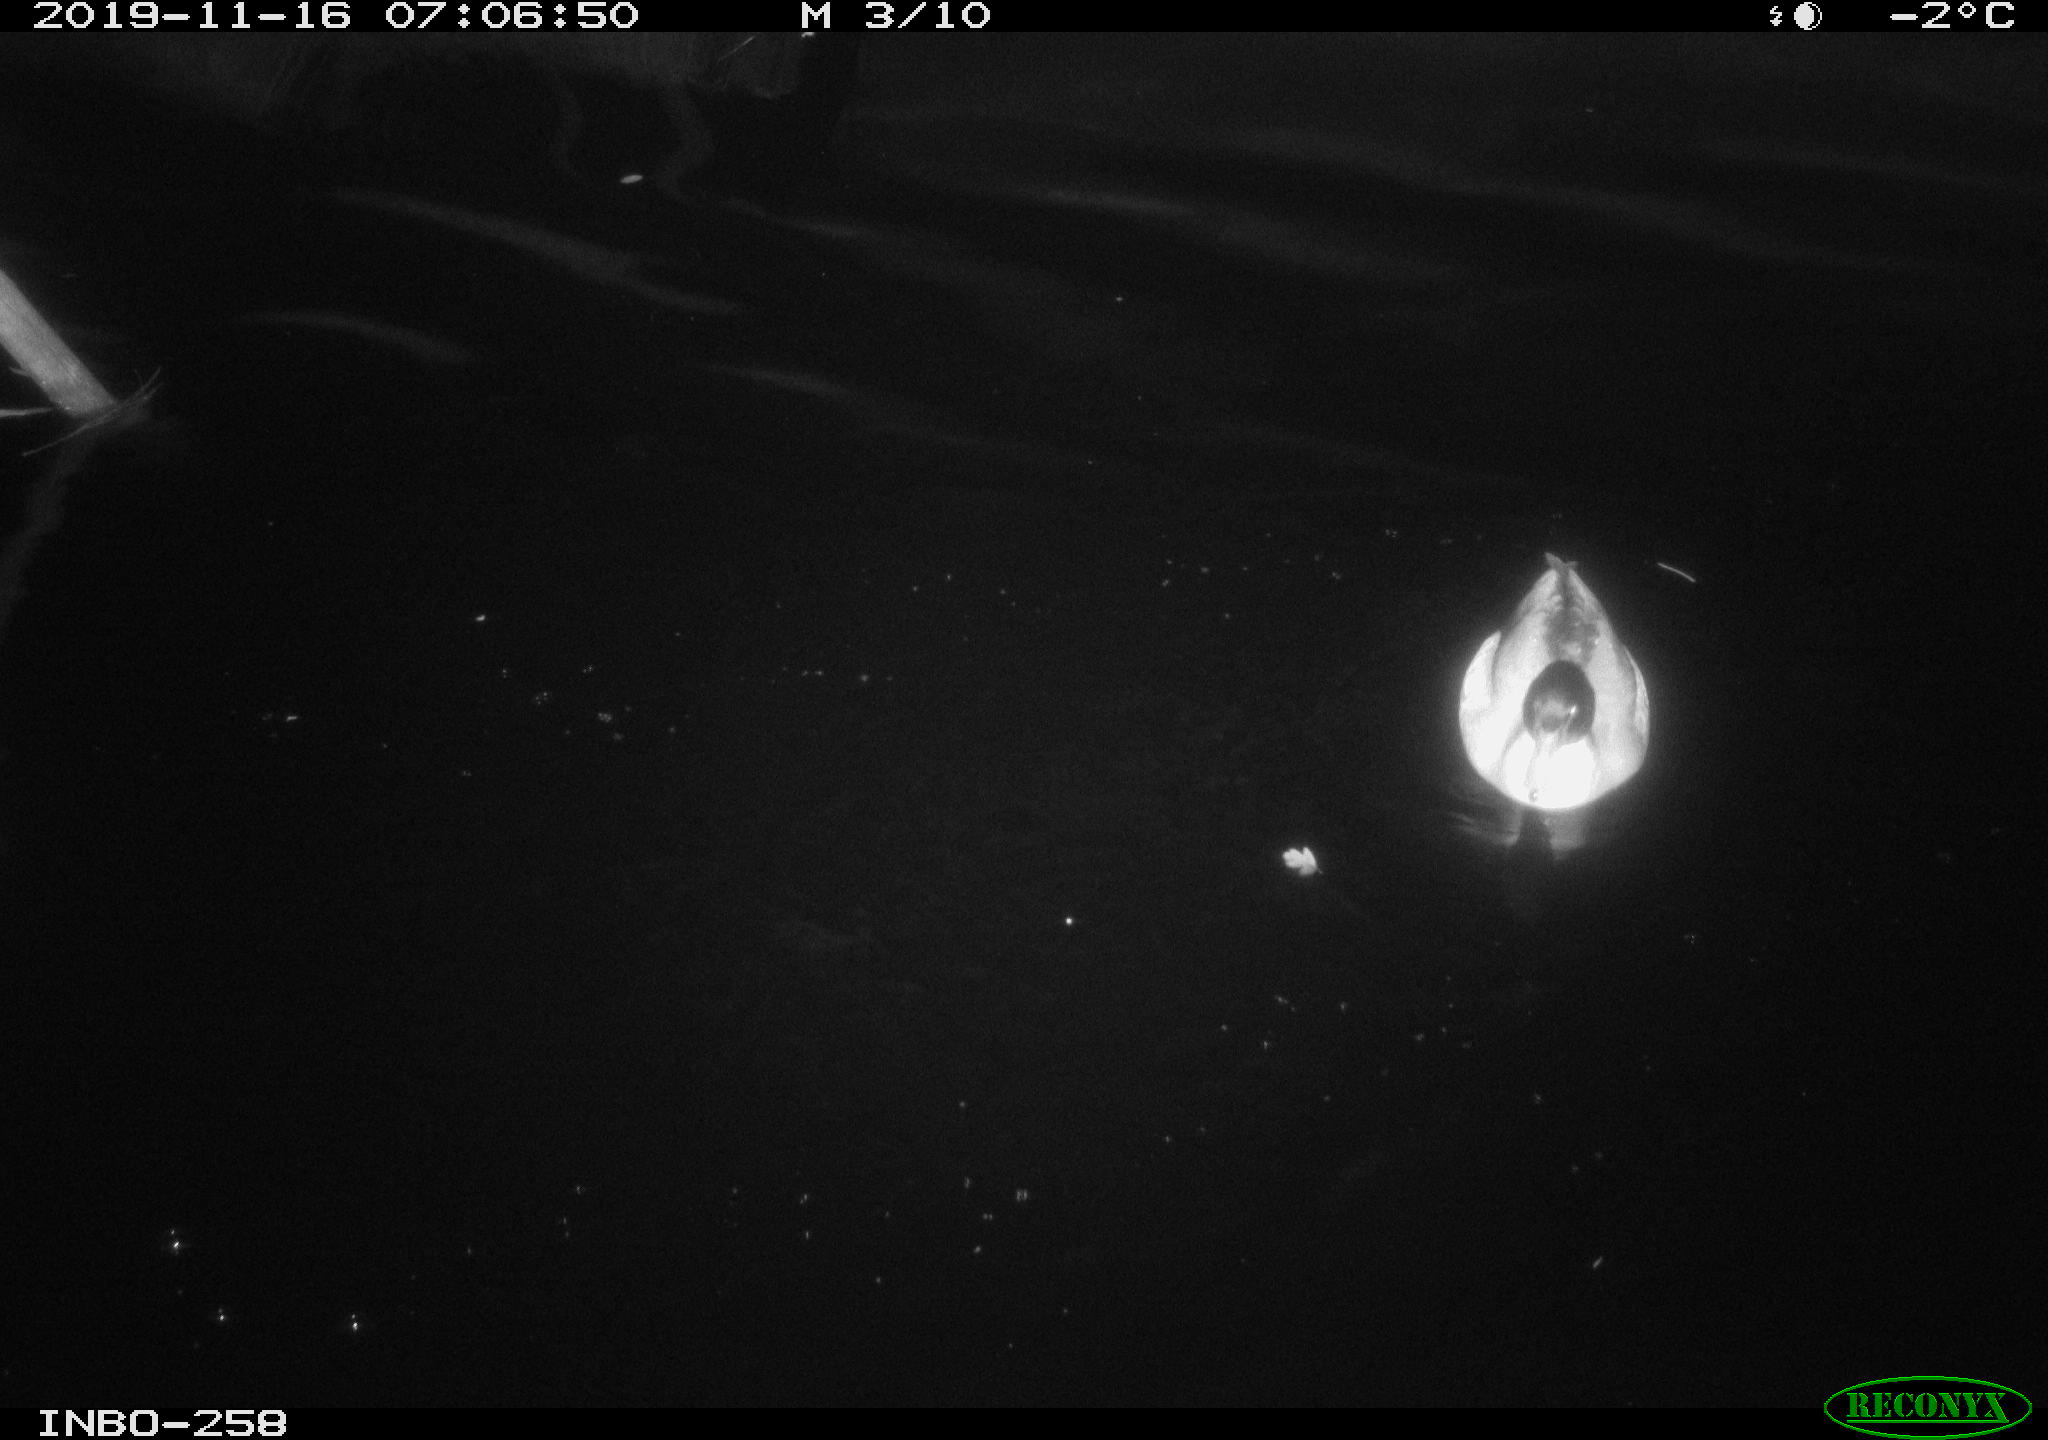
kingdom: Animalia
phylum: Chordata
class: Aves
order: Anseriformes
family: Anatidae
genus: Anas
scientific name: Anas platyrhynchos
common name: Mallard
